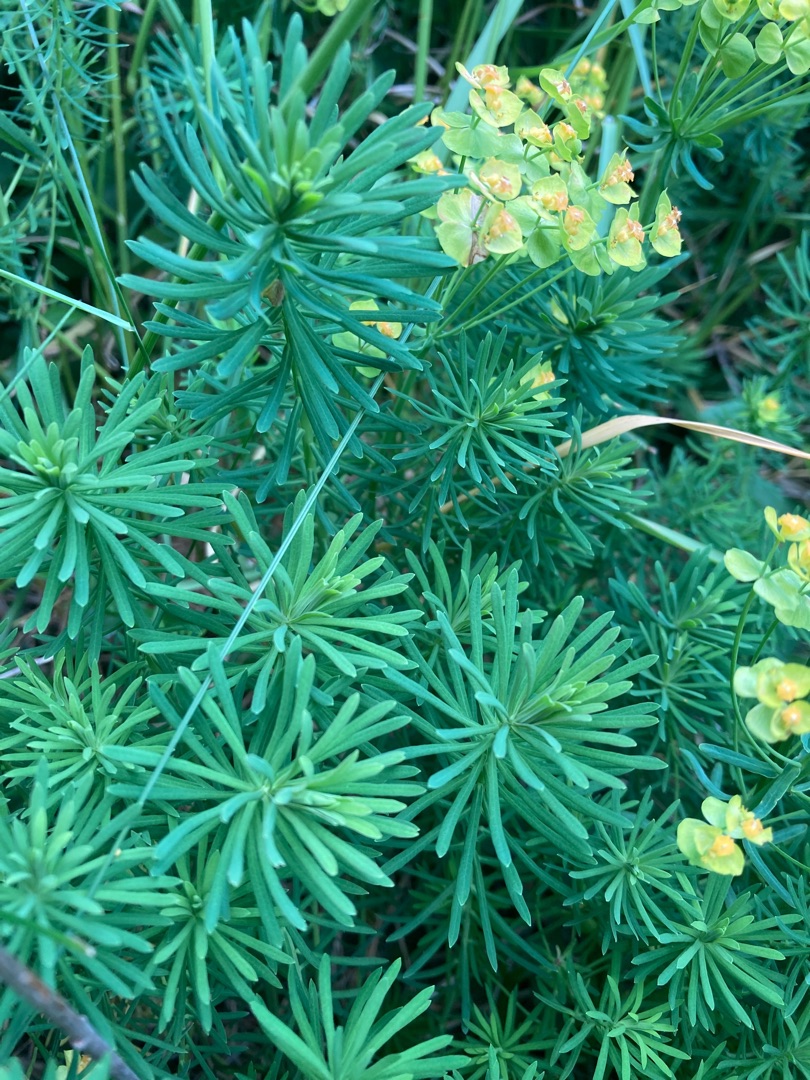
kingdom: Plantae
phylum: Tracheophyta
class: Magnoliopsida
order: Malpighiales
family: Euphorbiaceae
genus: Euphorbia
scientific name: Euphorbia cyparissias
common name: Cypres-vortemælk
